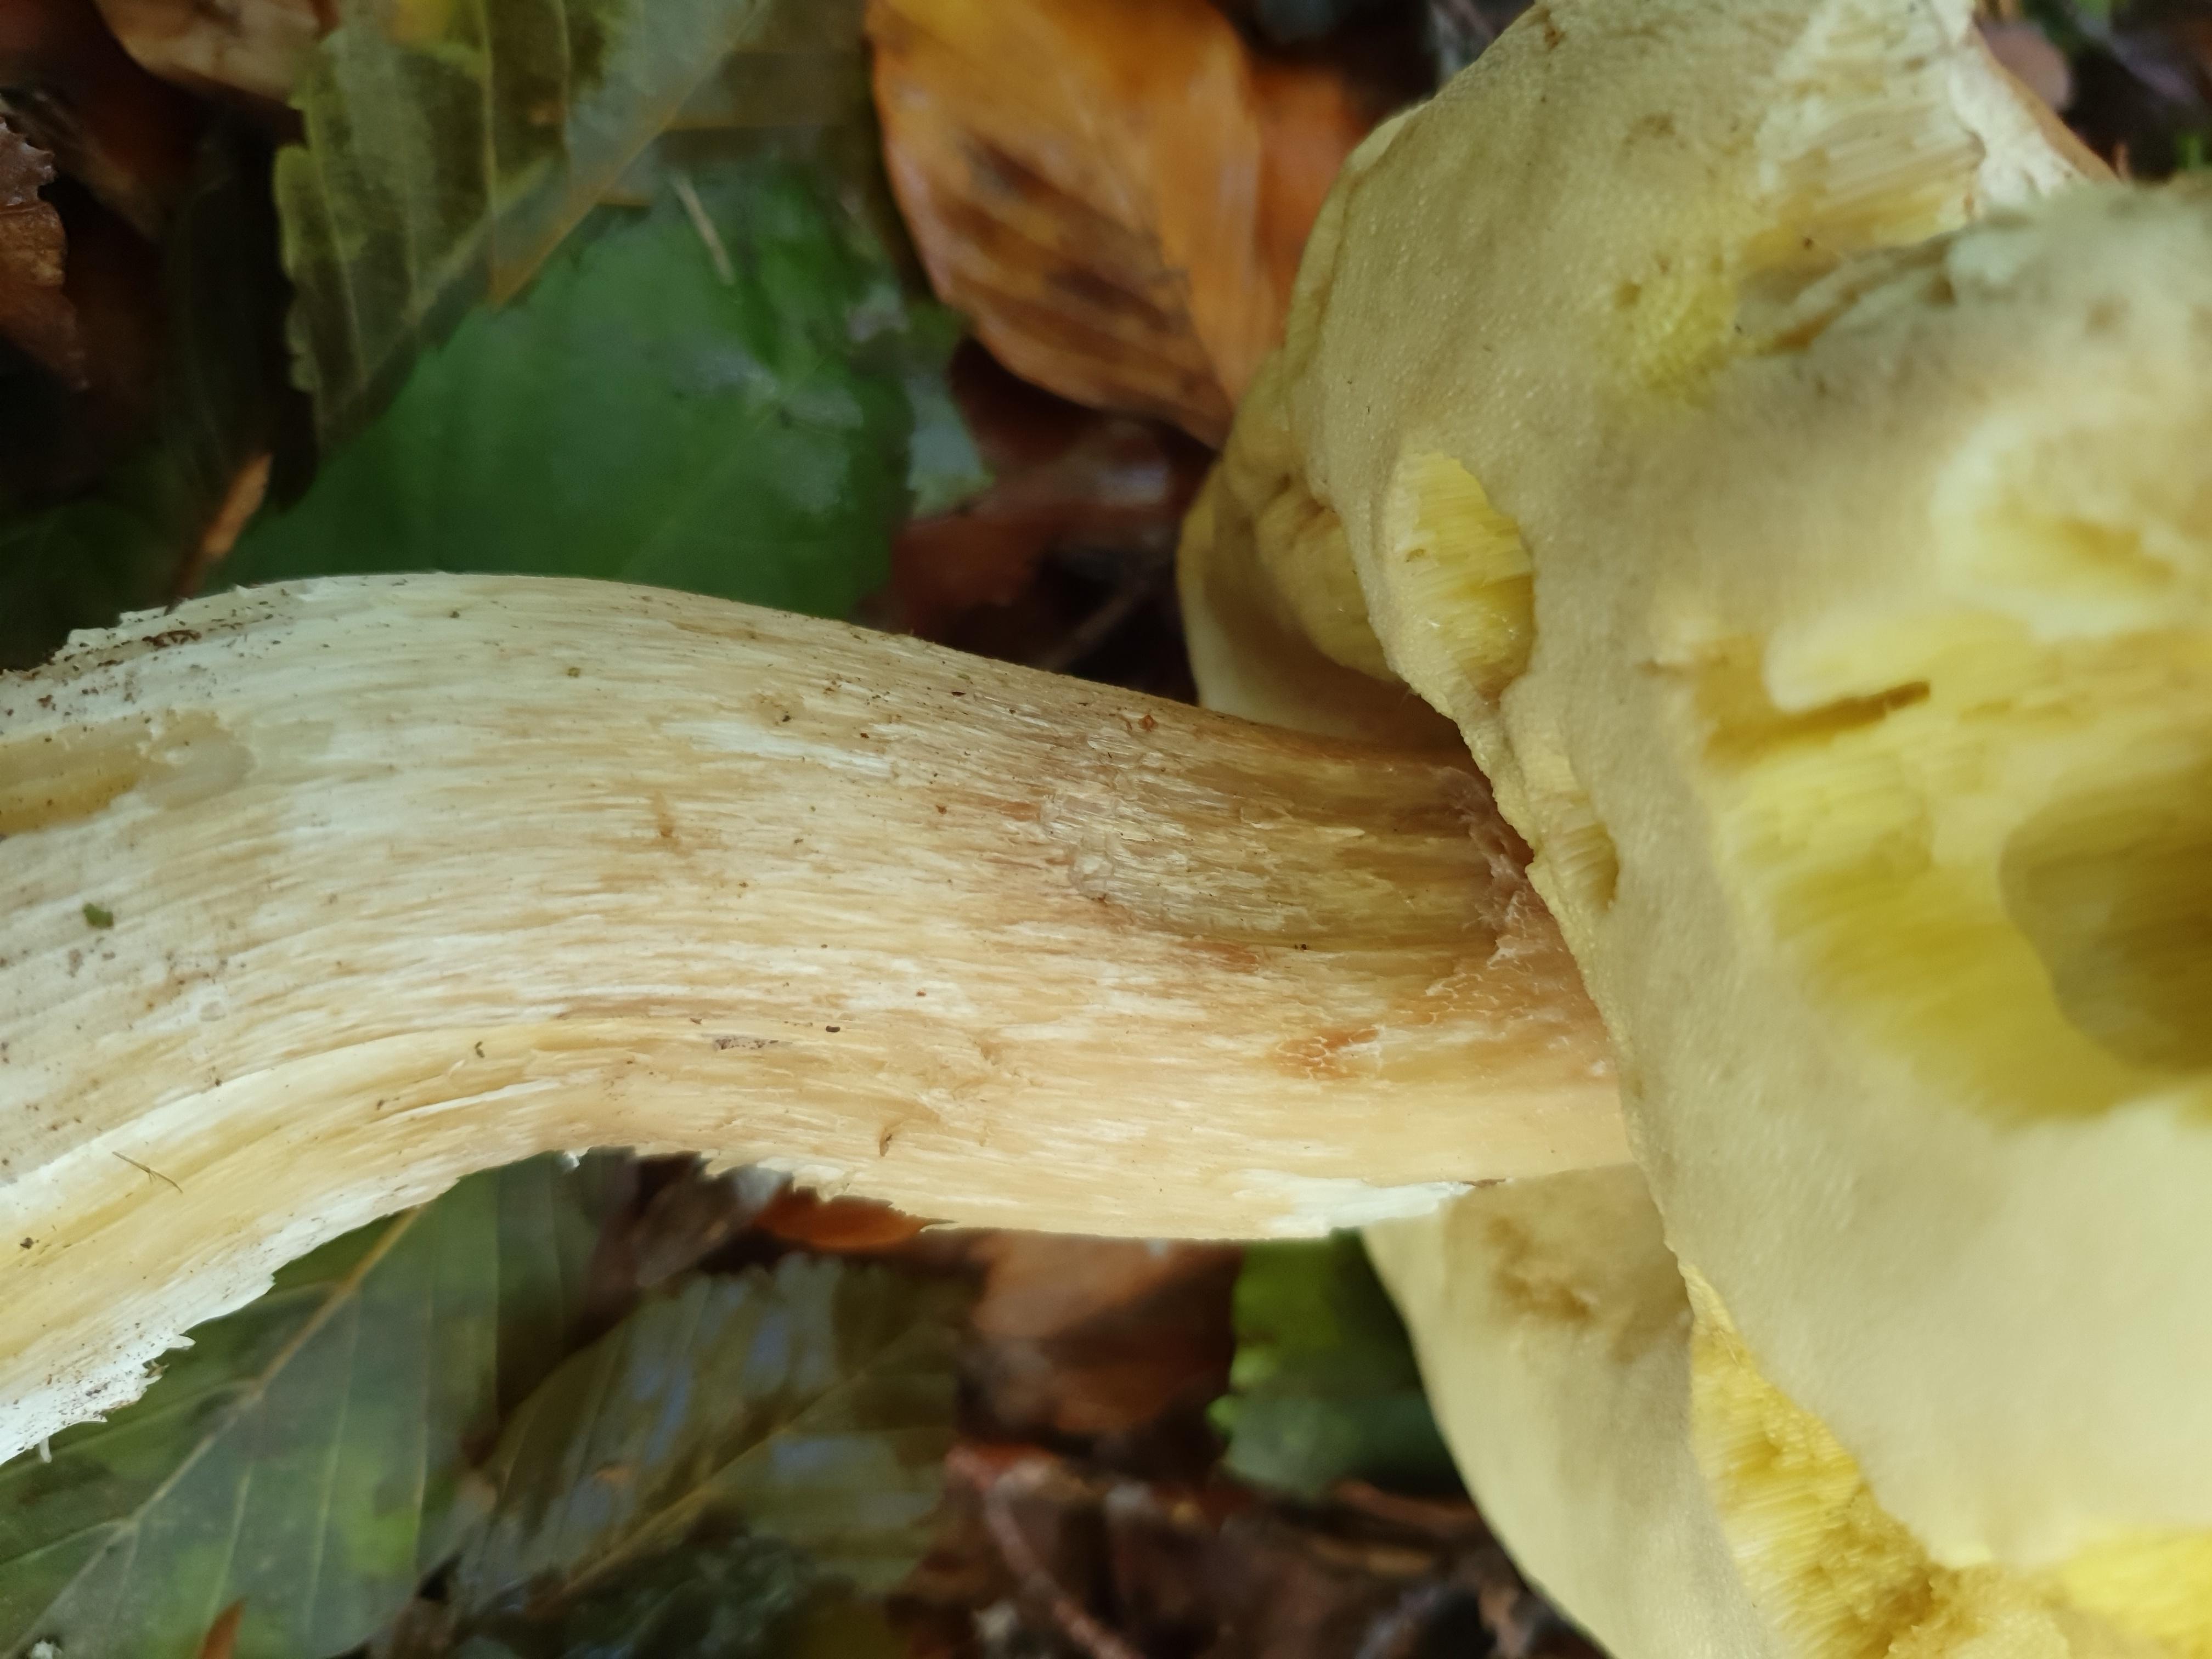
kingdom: Fungi
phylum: Basidiomycota
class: Agaricomycetes
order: Boletales
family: Boletaceae
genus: Boletus
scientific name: Boletus edulis
